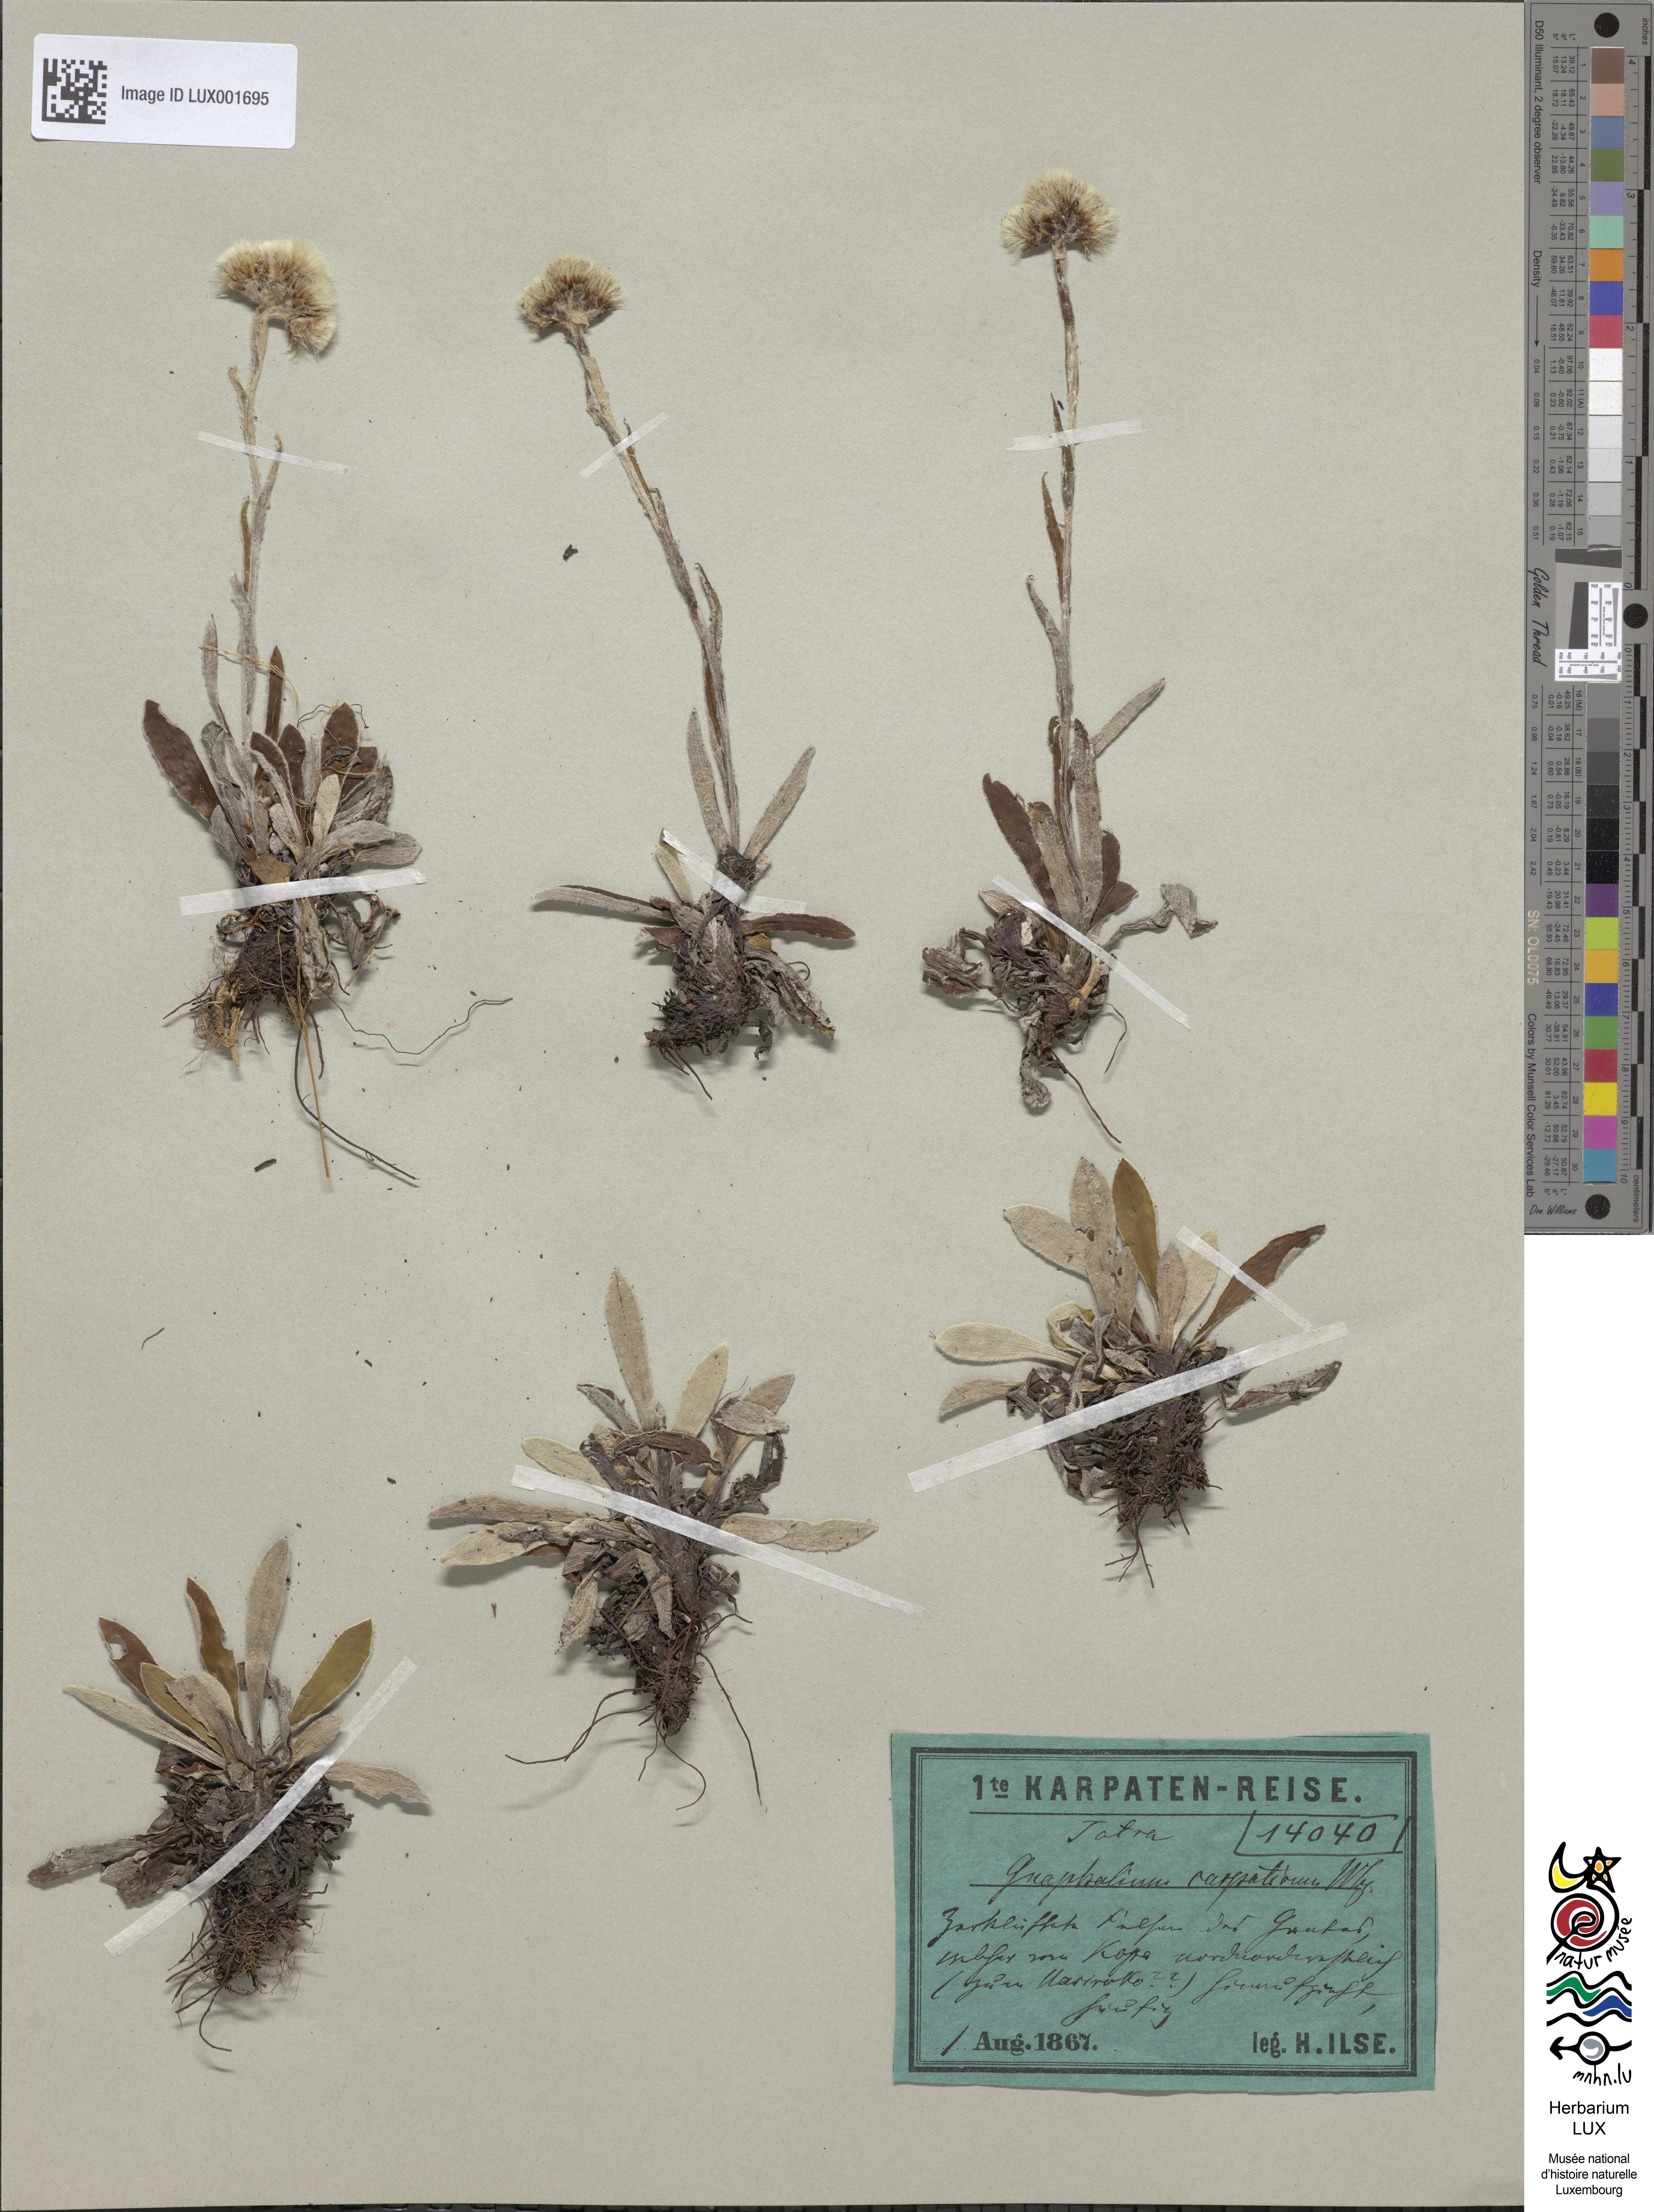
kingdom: Plantae
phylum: Tracheophyta
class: Magnoliopsida
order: Asterales
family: Asteraceae
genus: Antennaria
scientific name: Antennaria carpatica
